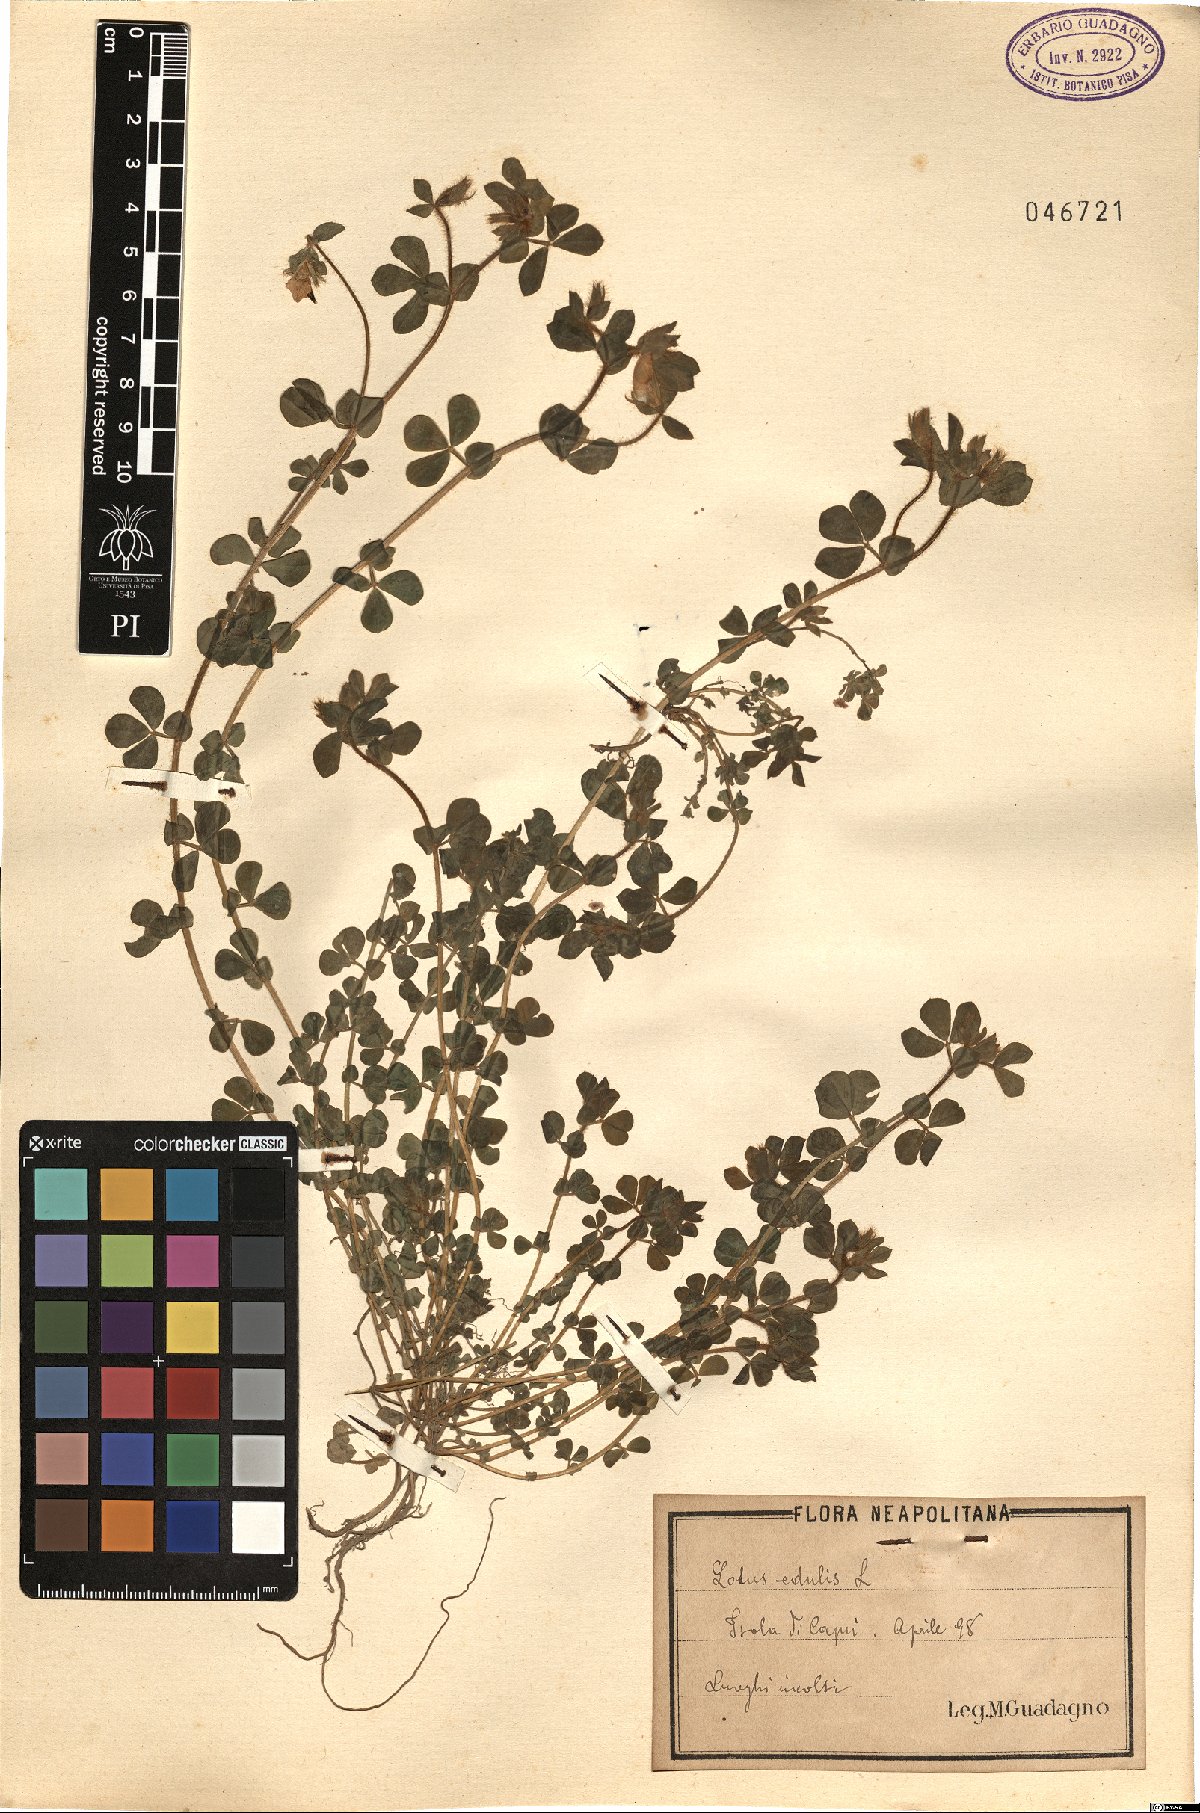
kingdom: Plantae
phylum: Tracheophyta
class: Magnoliopsida
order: Fabales
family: Fabaceae
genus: Lotus
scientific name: Lotus edulis
